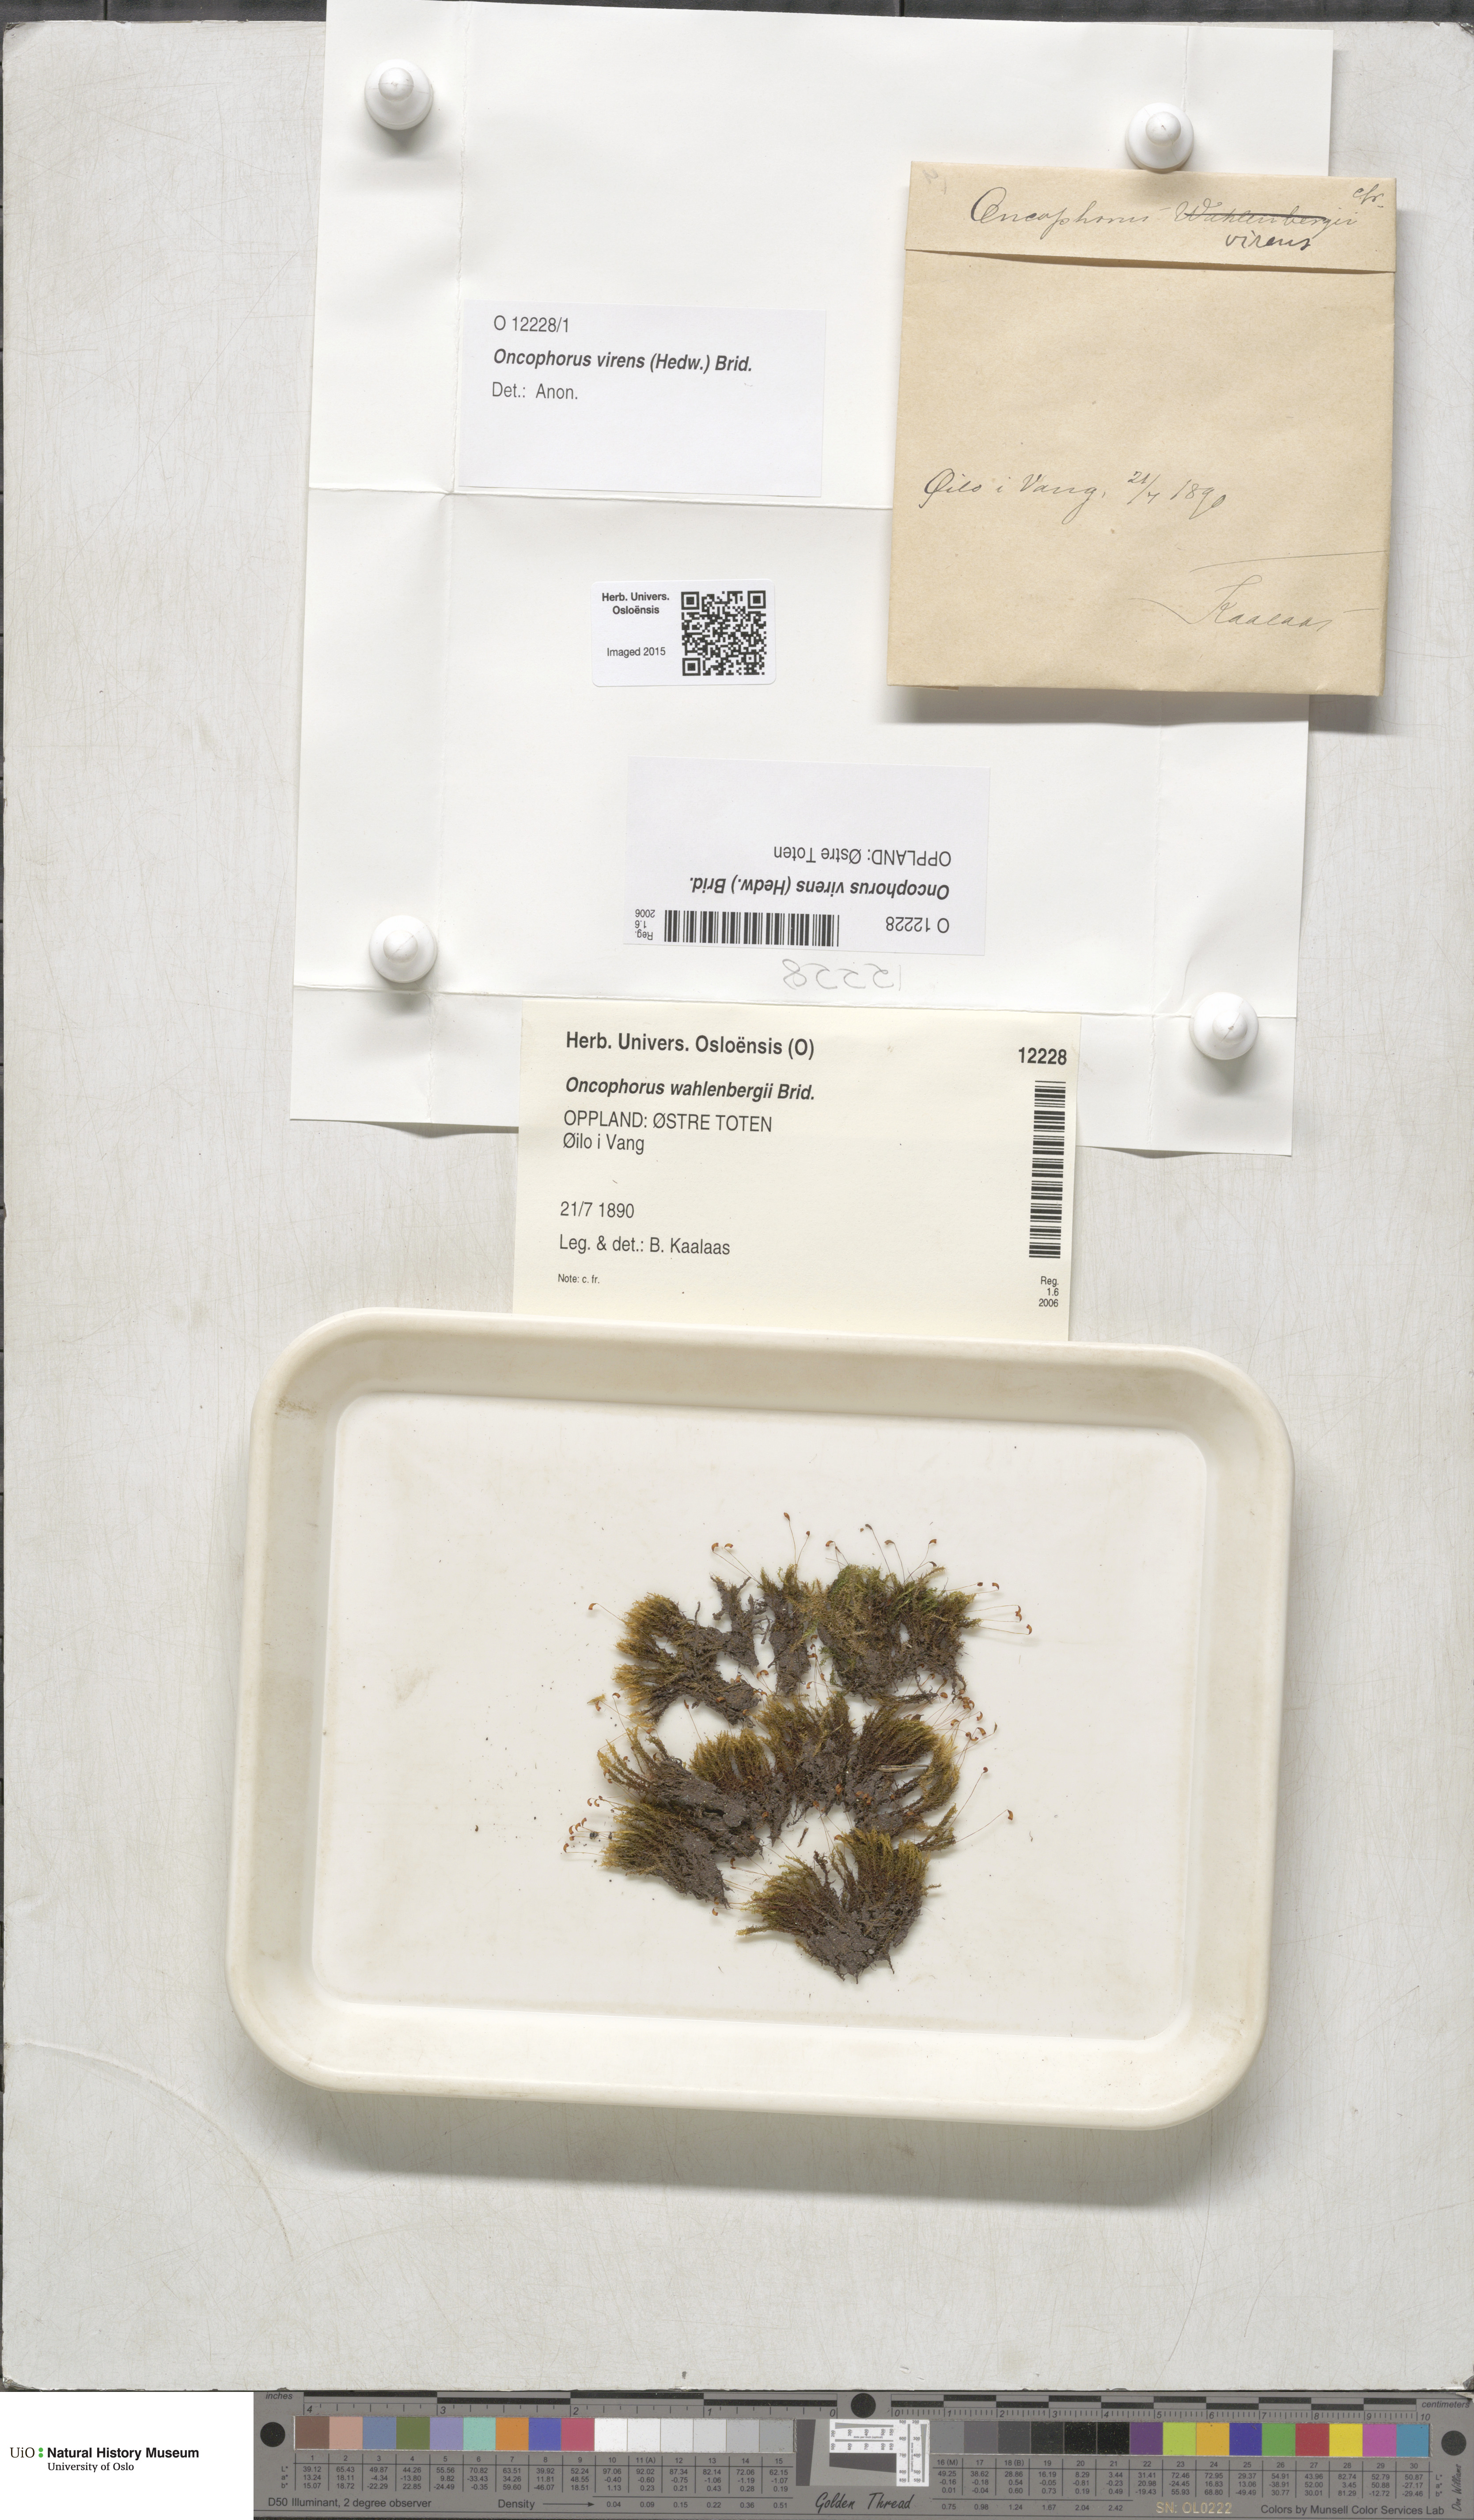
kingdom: Plantae
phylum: Bryophyta
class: Bryopsida
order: Dicranales
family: Rhabdoweisiaceae
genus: Oncophorus
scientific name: Oncophorus virens
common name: Green spur moss
